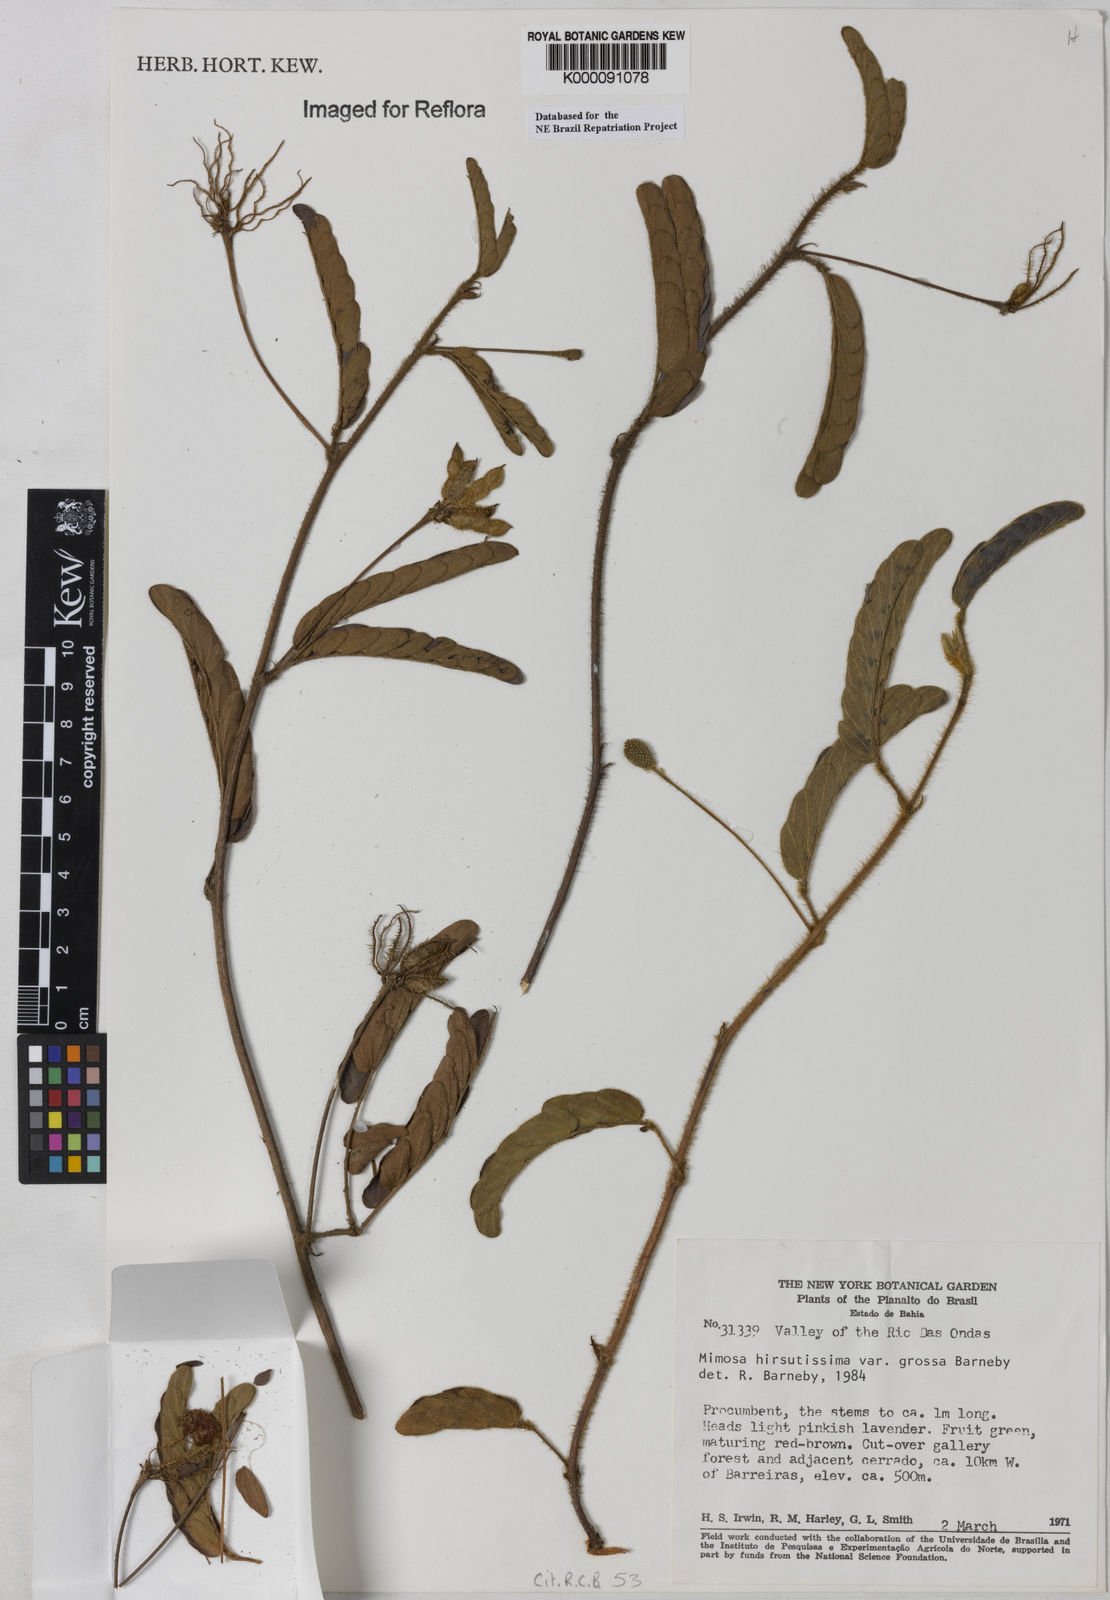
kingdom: Plantae
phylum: Tracheophyta
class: Magnoliopsida
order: Fabales
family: Fabaceae
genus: Mimosa
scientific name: Mimosa hirsutissima
